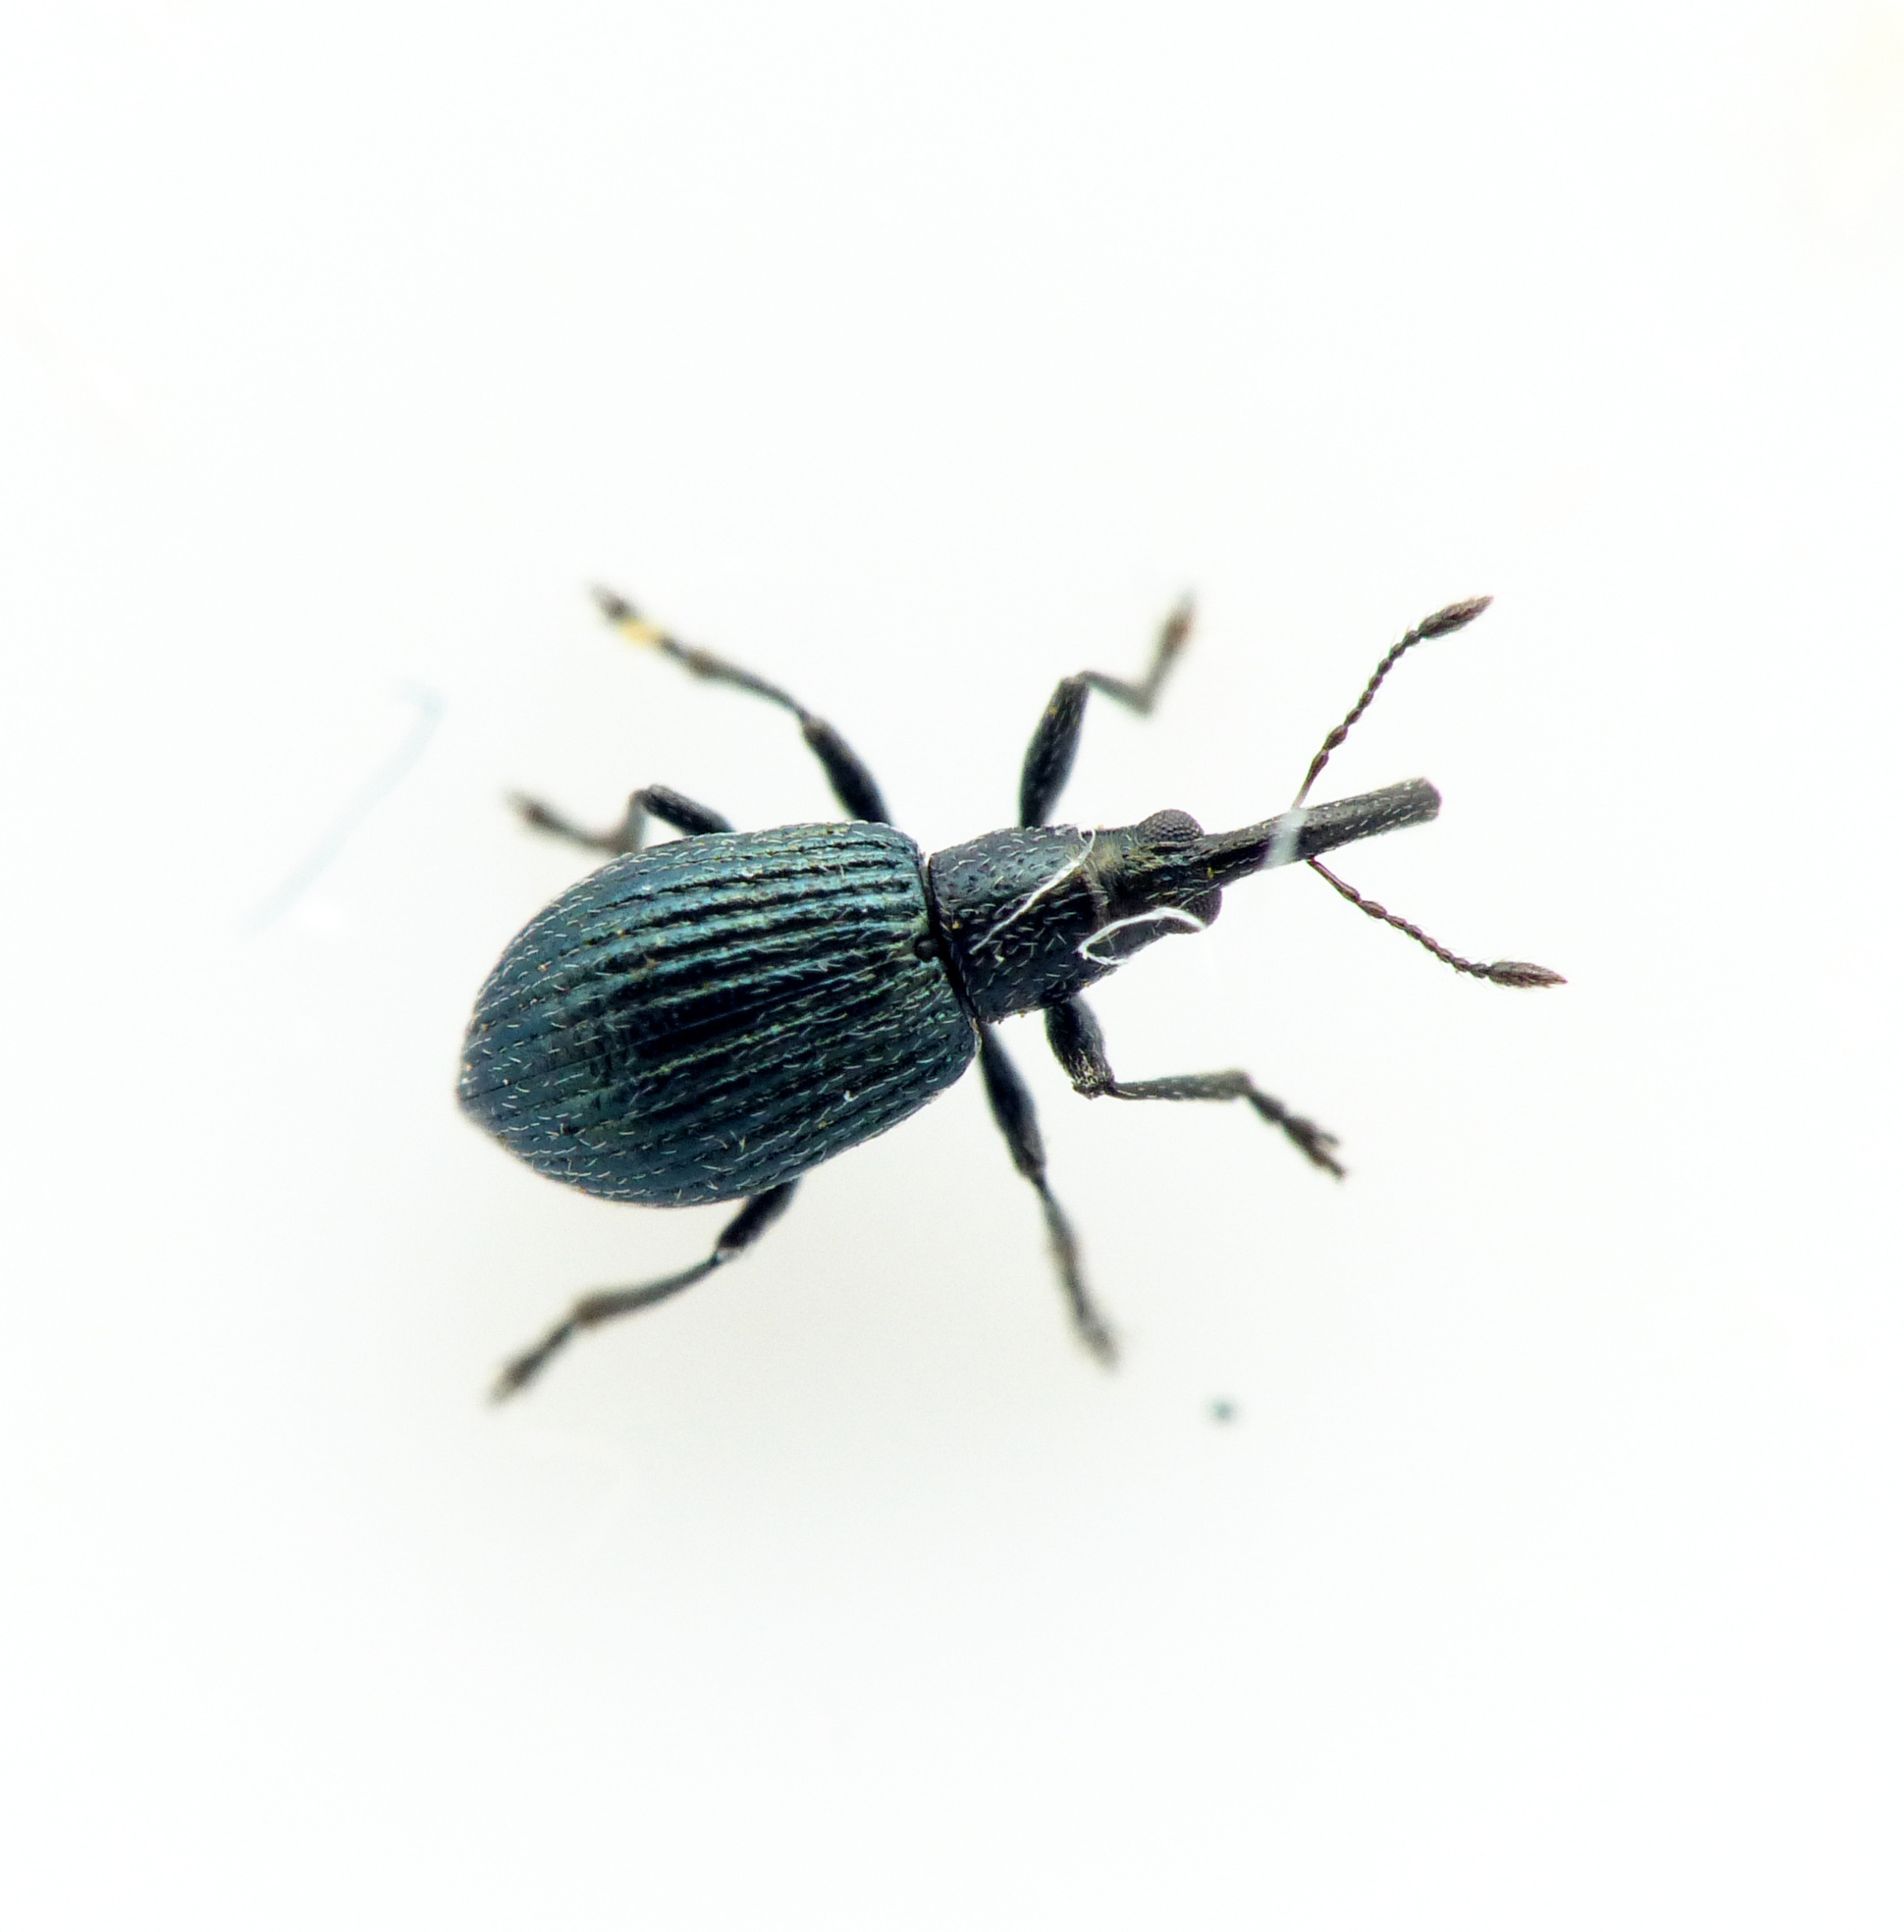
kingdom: Animalia
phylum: Arthropoda
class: Insecta
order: Coleoptera
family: Apionidae
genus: Ischnopterapion
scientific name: Ischnopterapion virens
